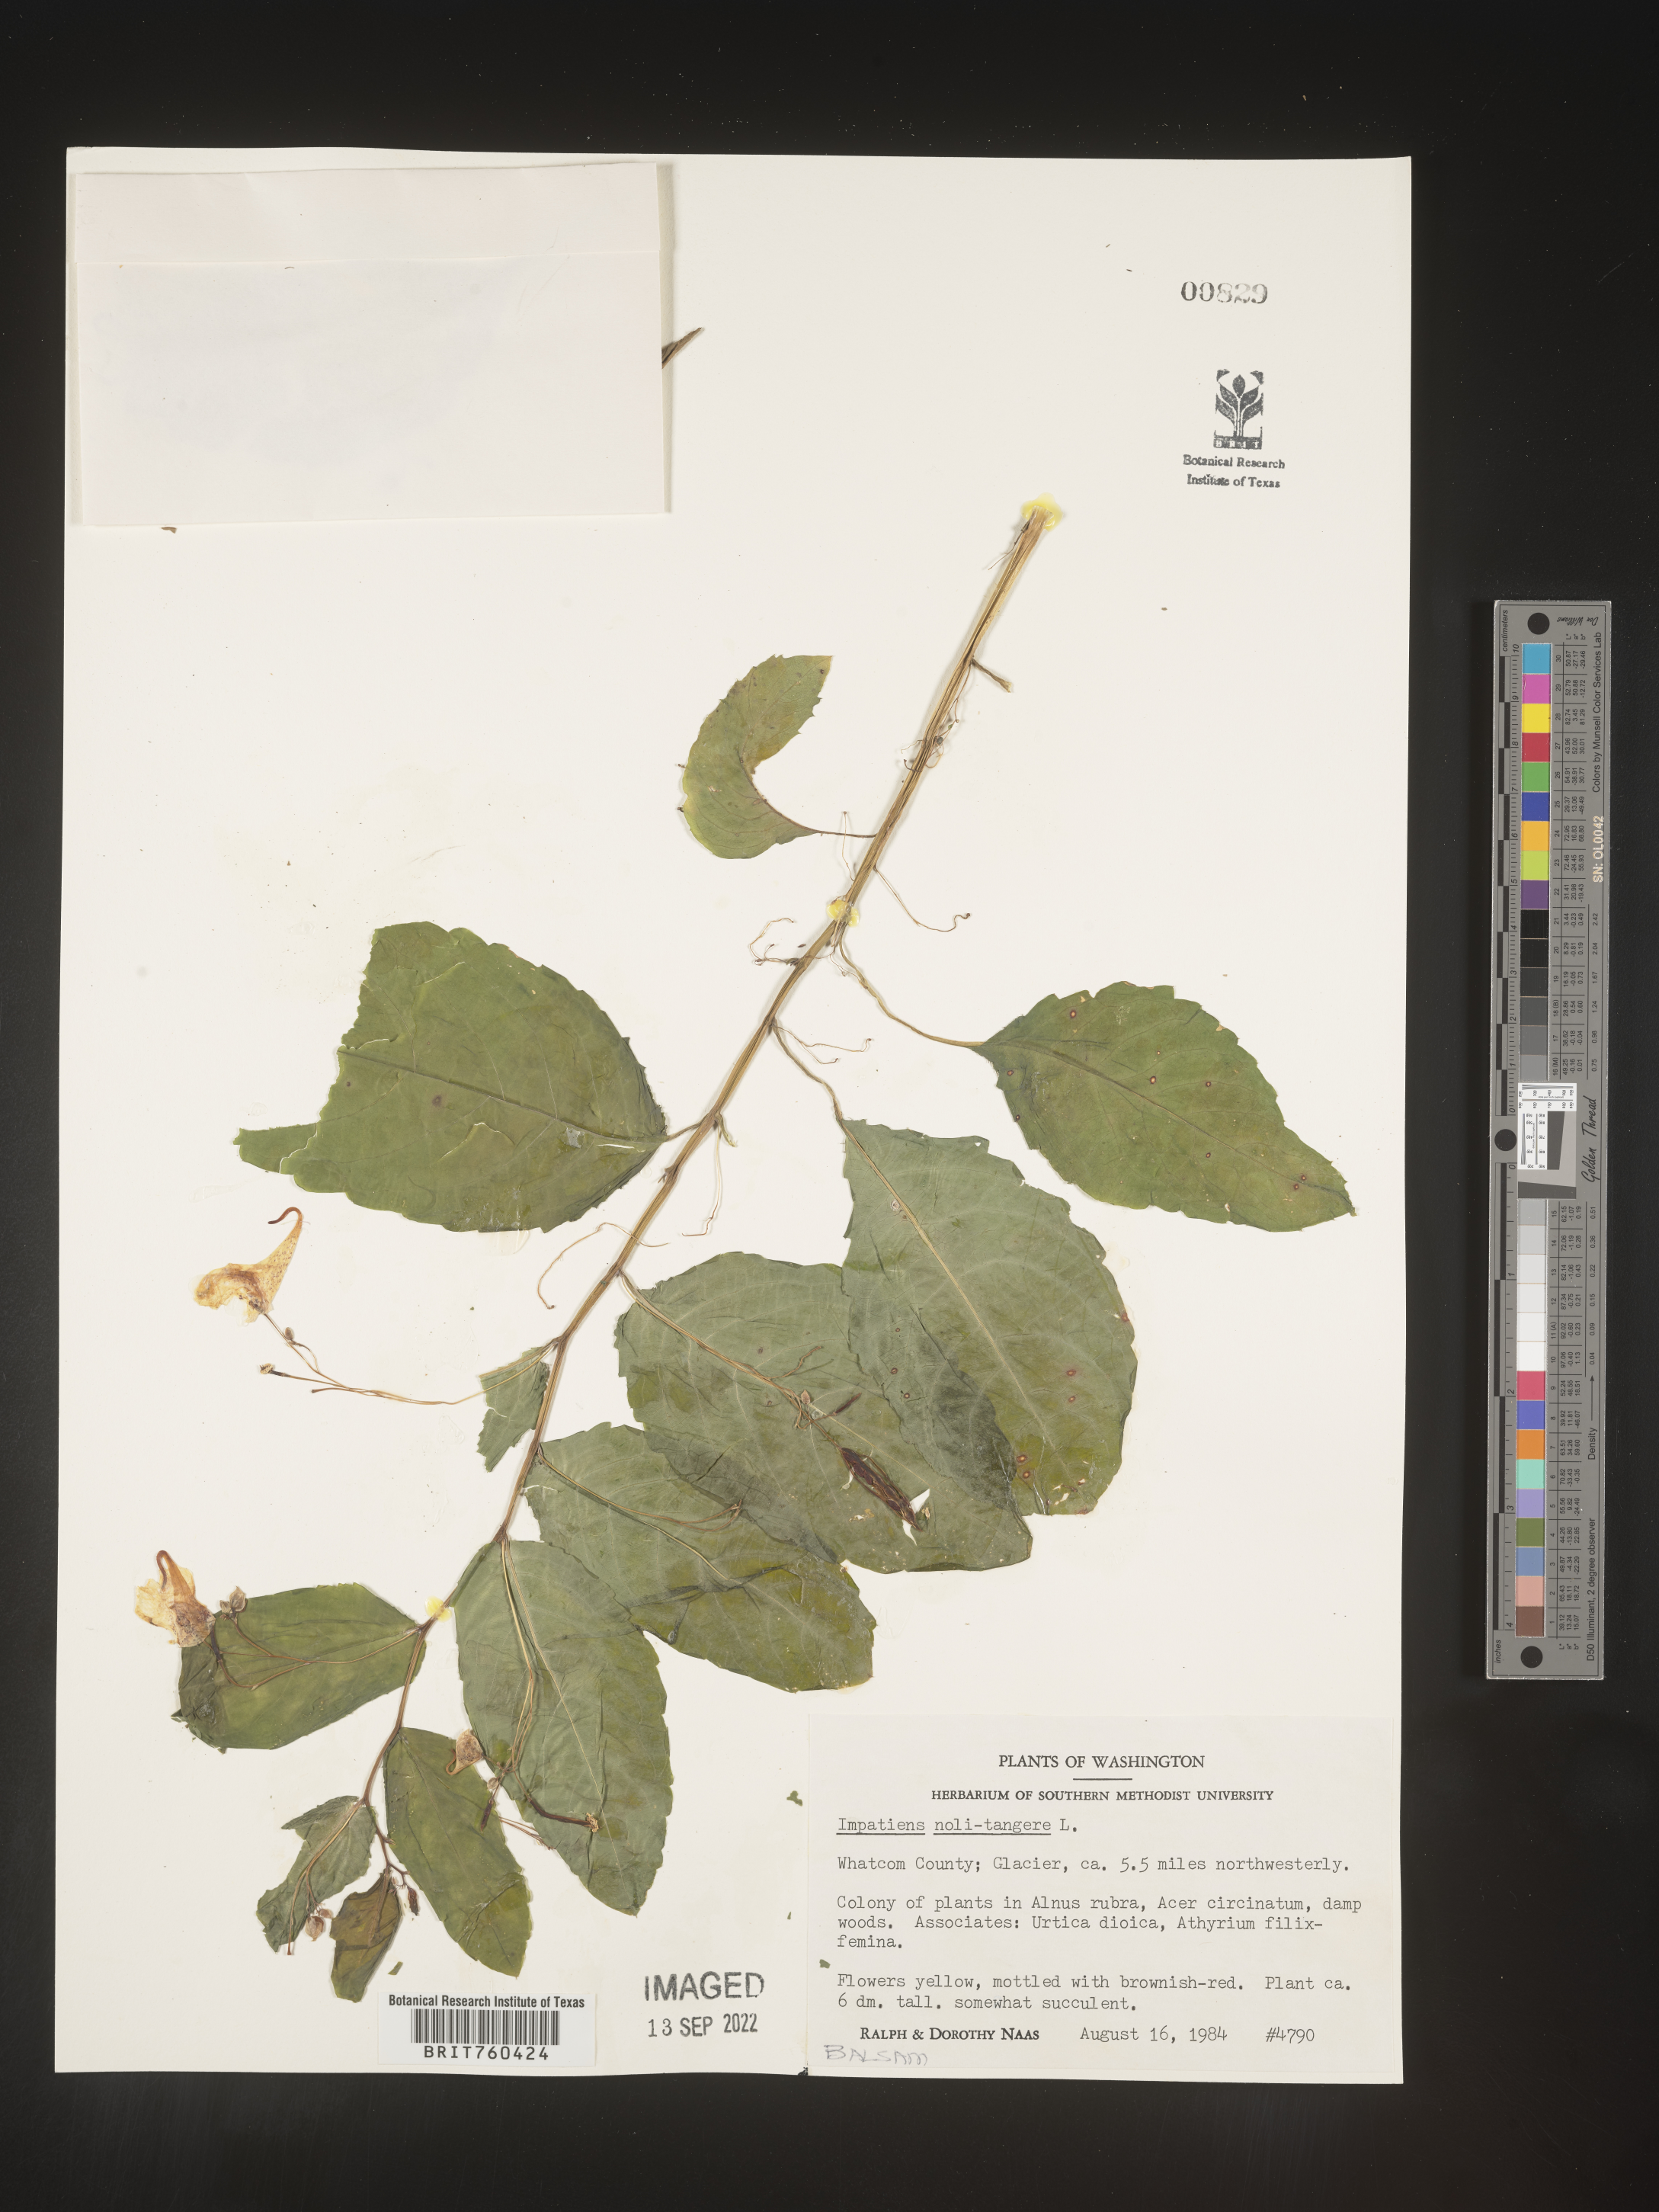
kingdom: Plantae
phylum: Tracheophyta
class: Magnoliopsida
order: Ericales
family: Balsaminaceae
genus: Impatiens
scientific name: Impatiens
